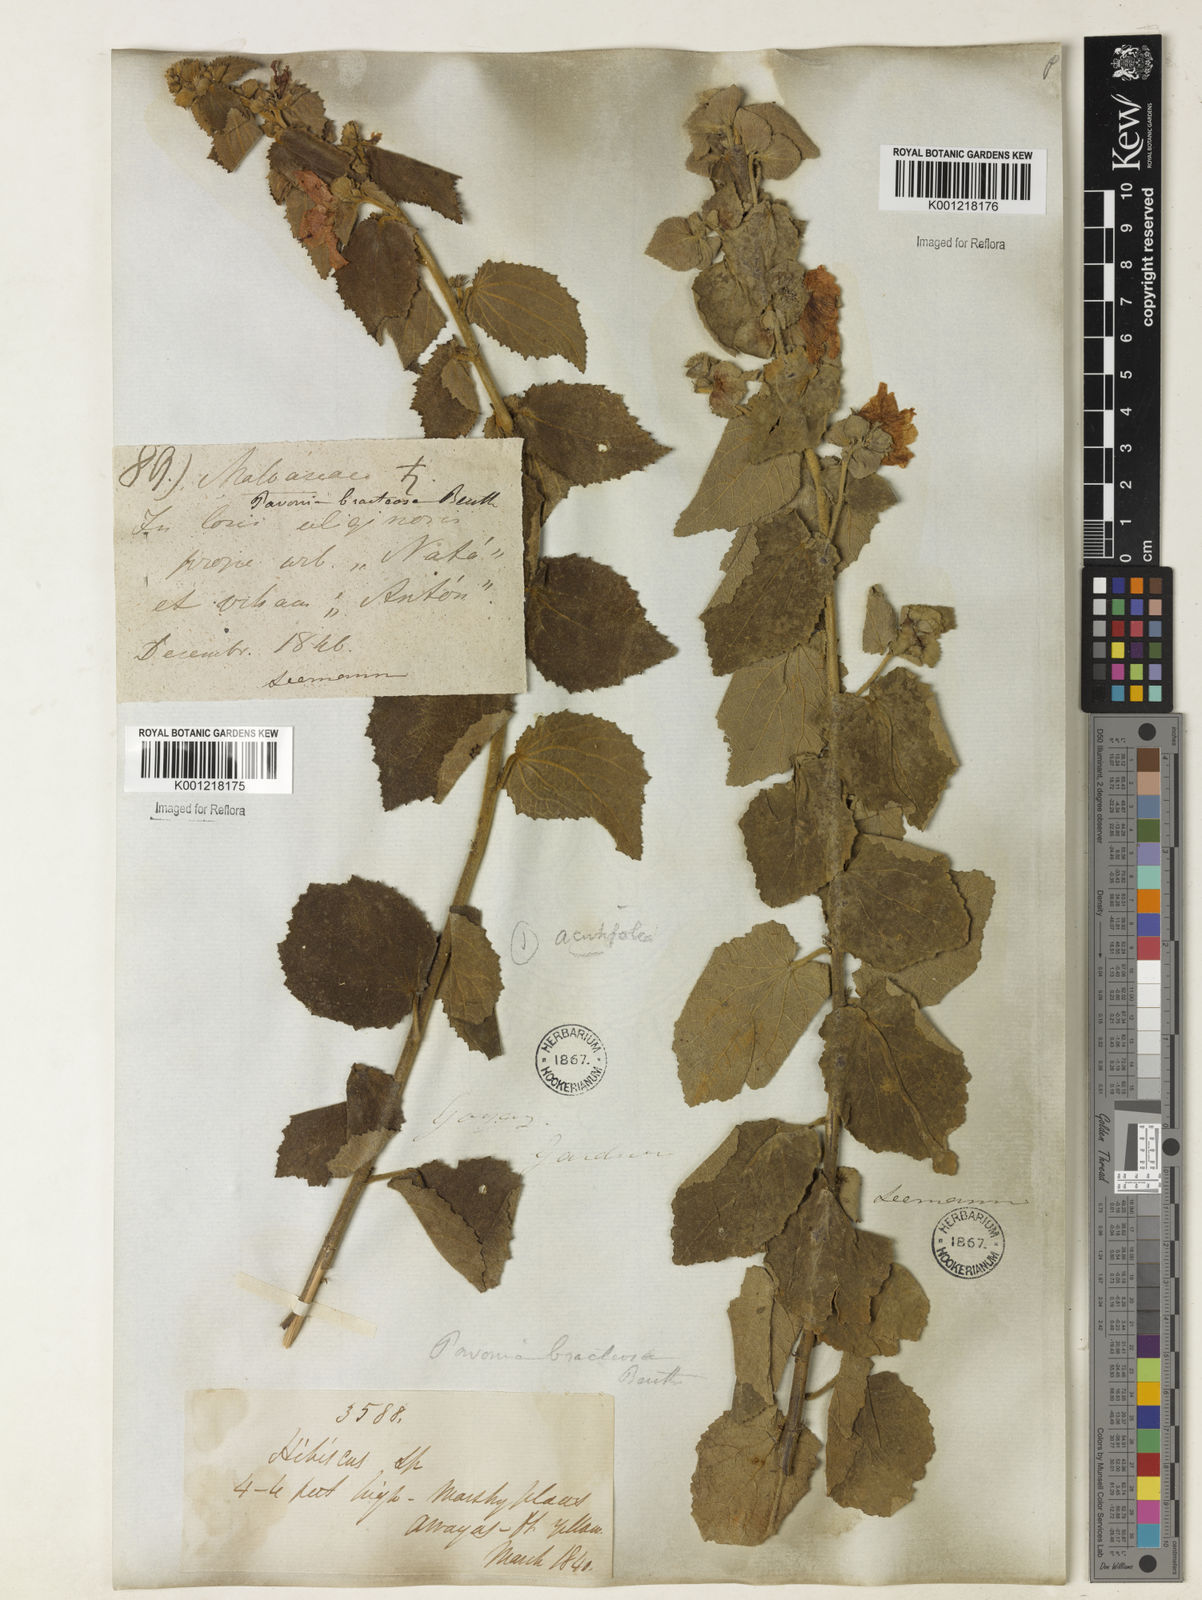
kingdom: Plantae
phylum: Tracheophyta
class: Magnoliopsida
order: Malvales
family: Malvaceae
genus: Peltaea
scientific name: Peltaea
